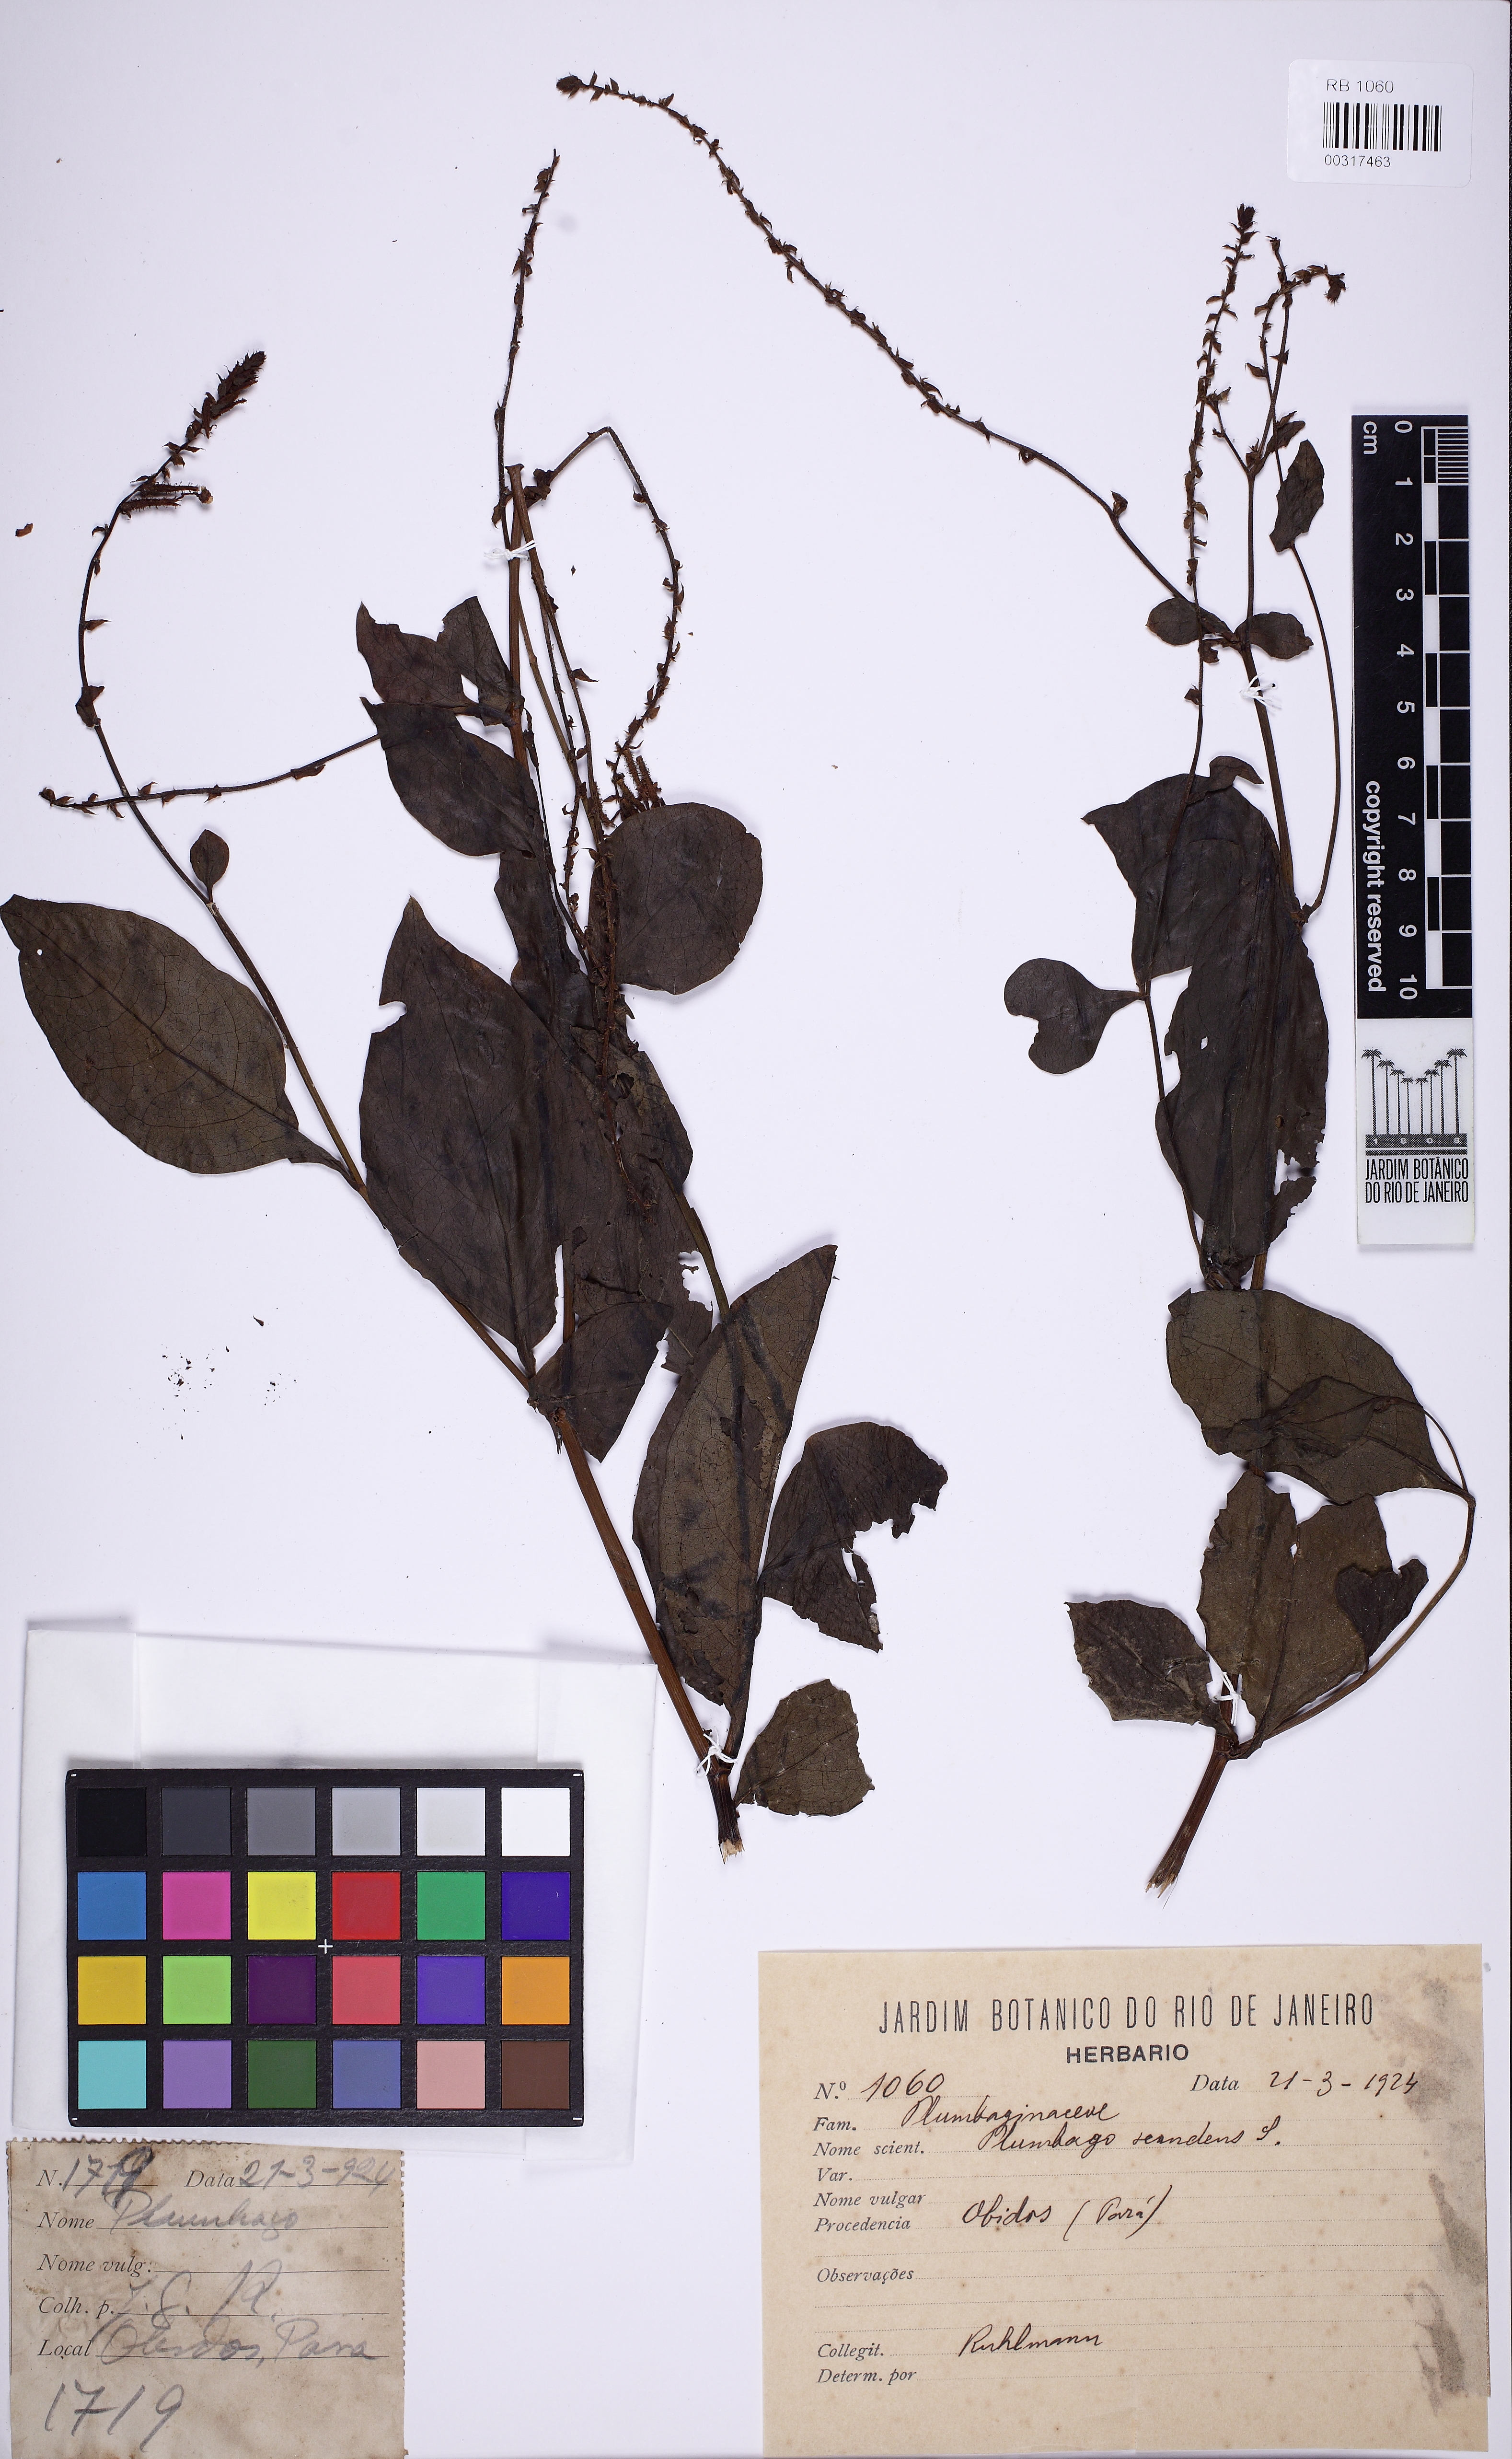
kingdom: Plantae
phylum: Tracheophyta
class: Magnoliopsida
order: Caryophyllales
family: Plumbaginaceae
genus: Plumbago
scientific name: Plumbago zeylanica
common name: Doctorbush
